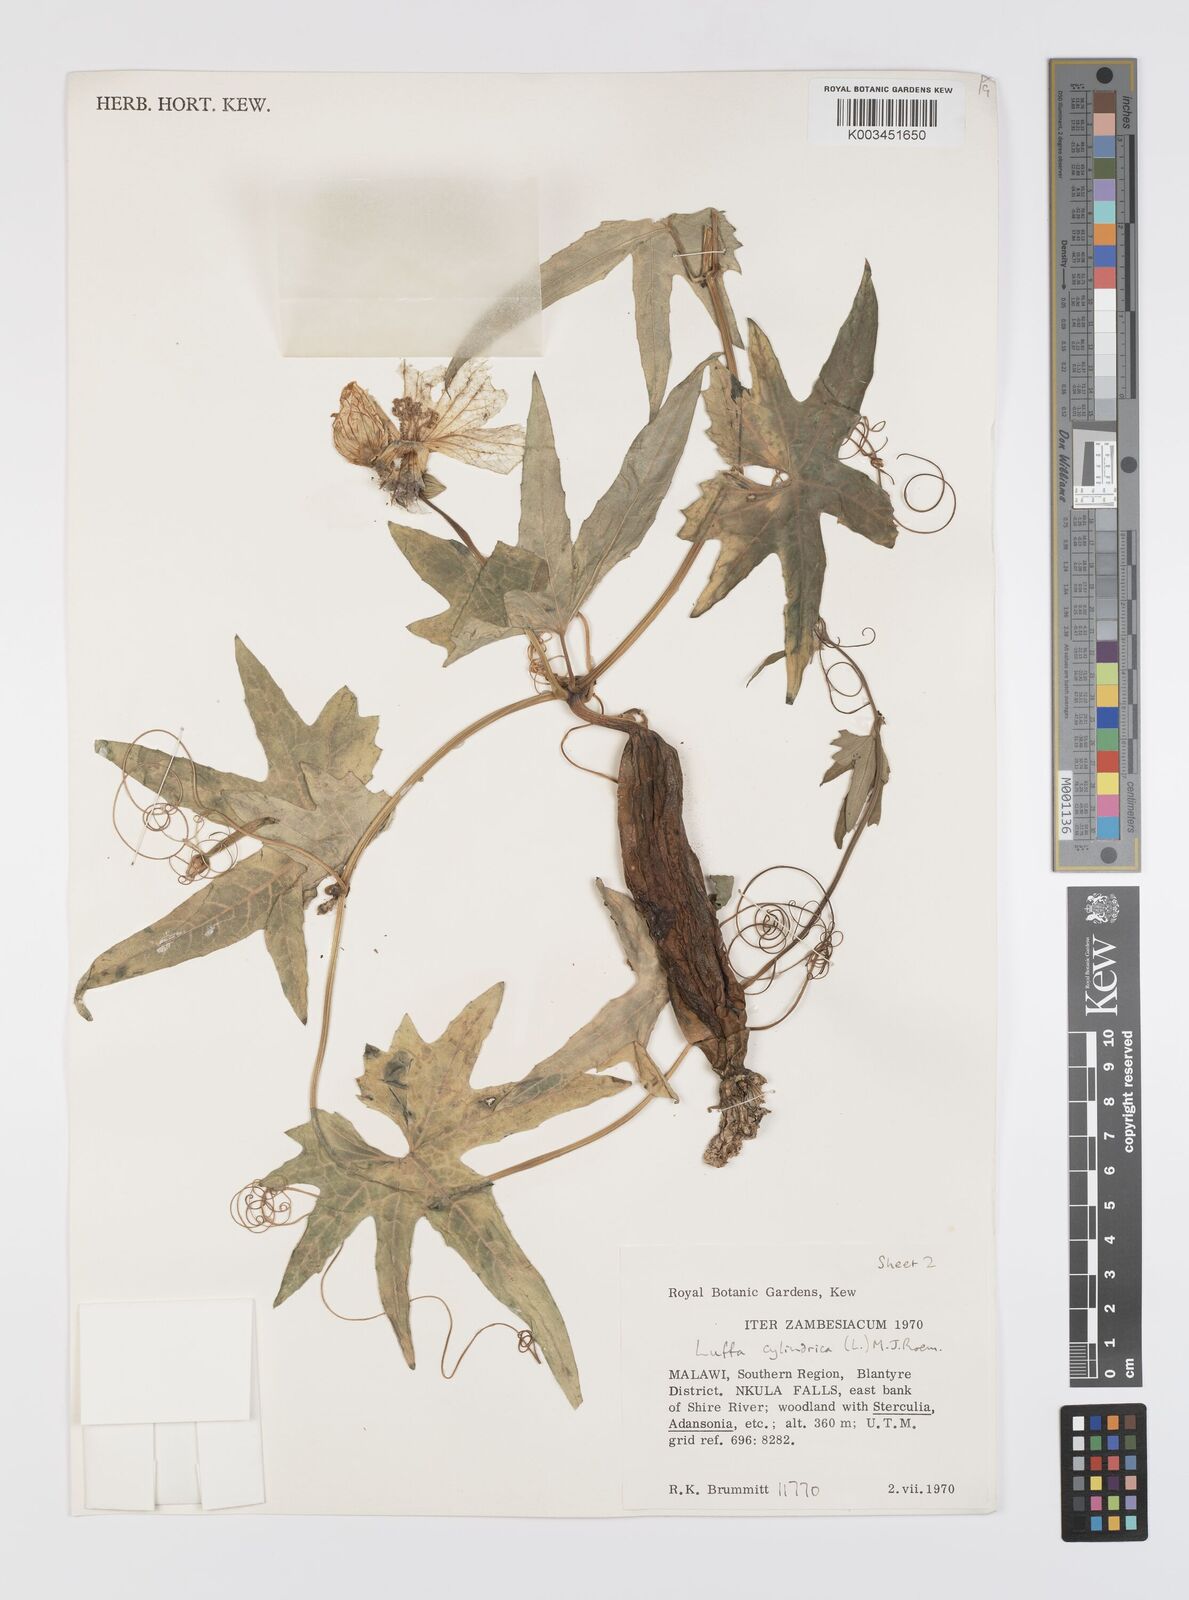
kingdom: Plantae
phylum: Tracheophyta
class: Magnoliopsida
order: Cucurbitales
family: Cucurbitaceae
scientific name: Cucurbitaceae
